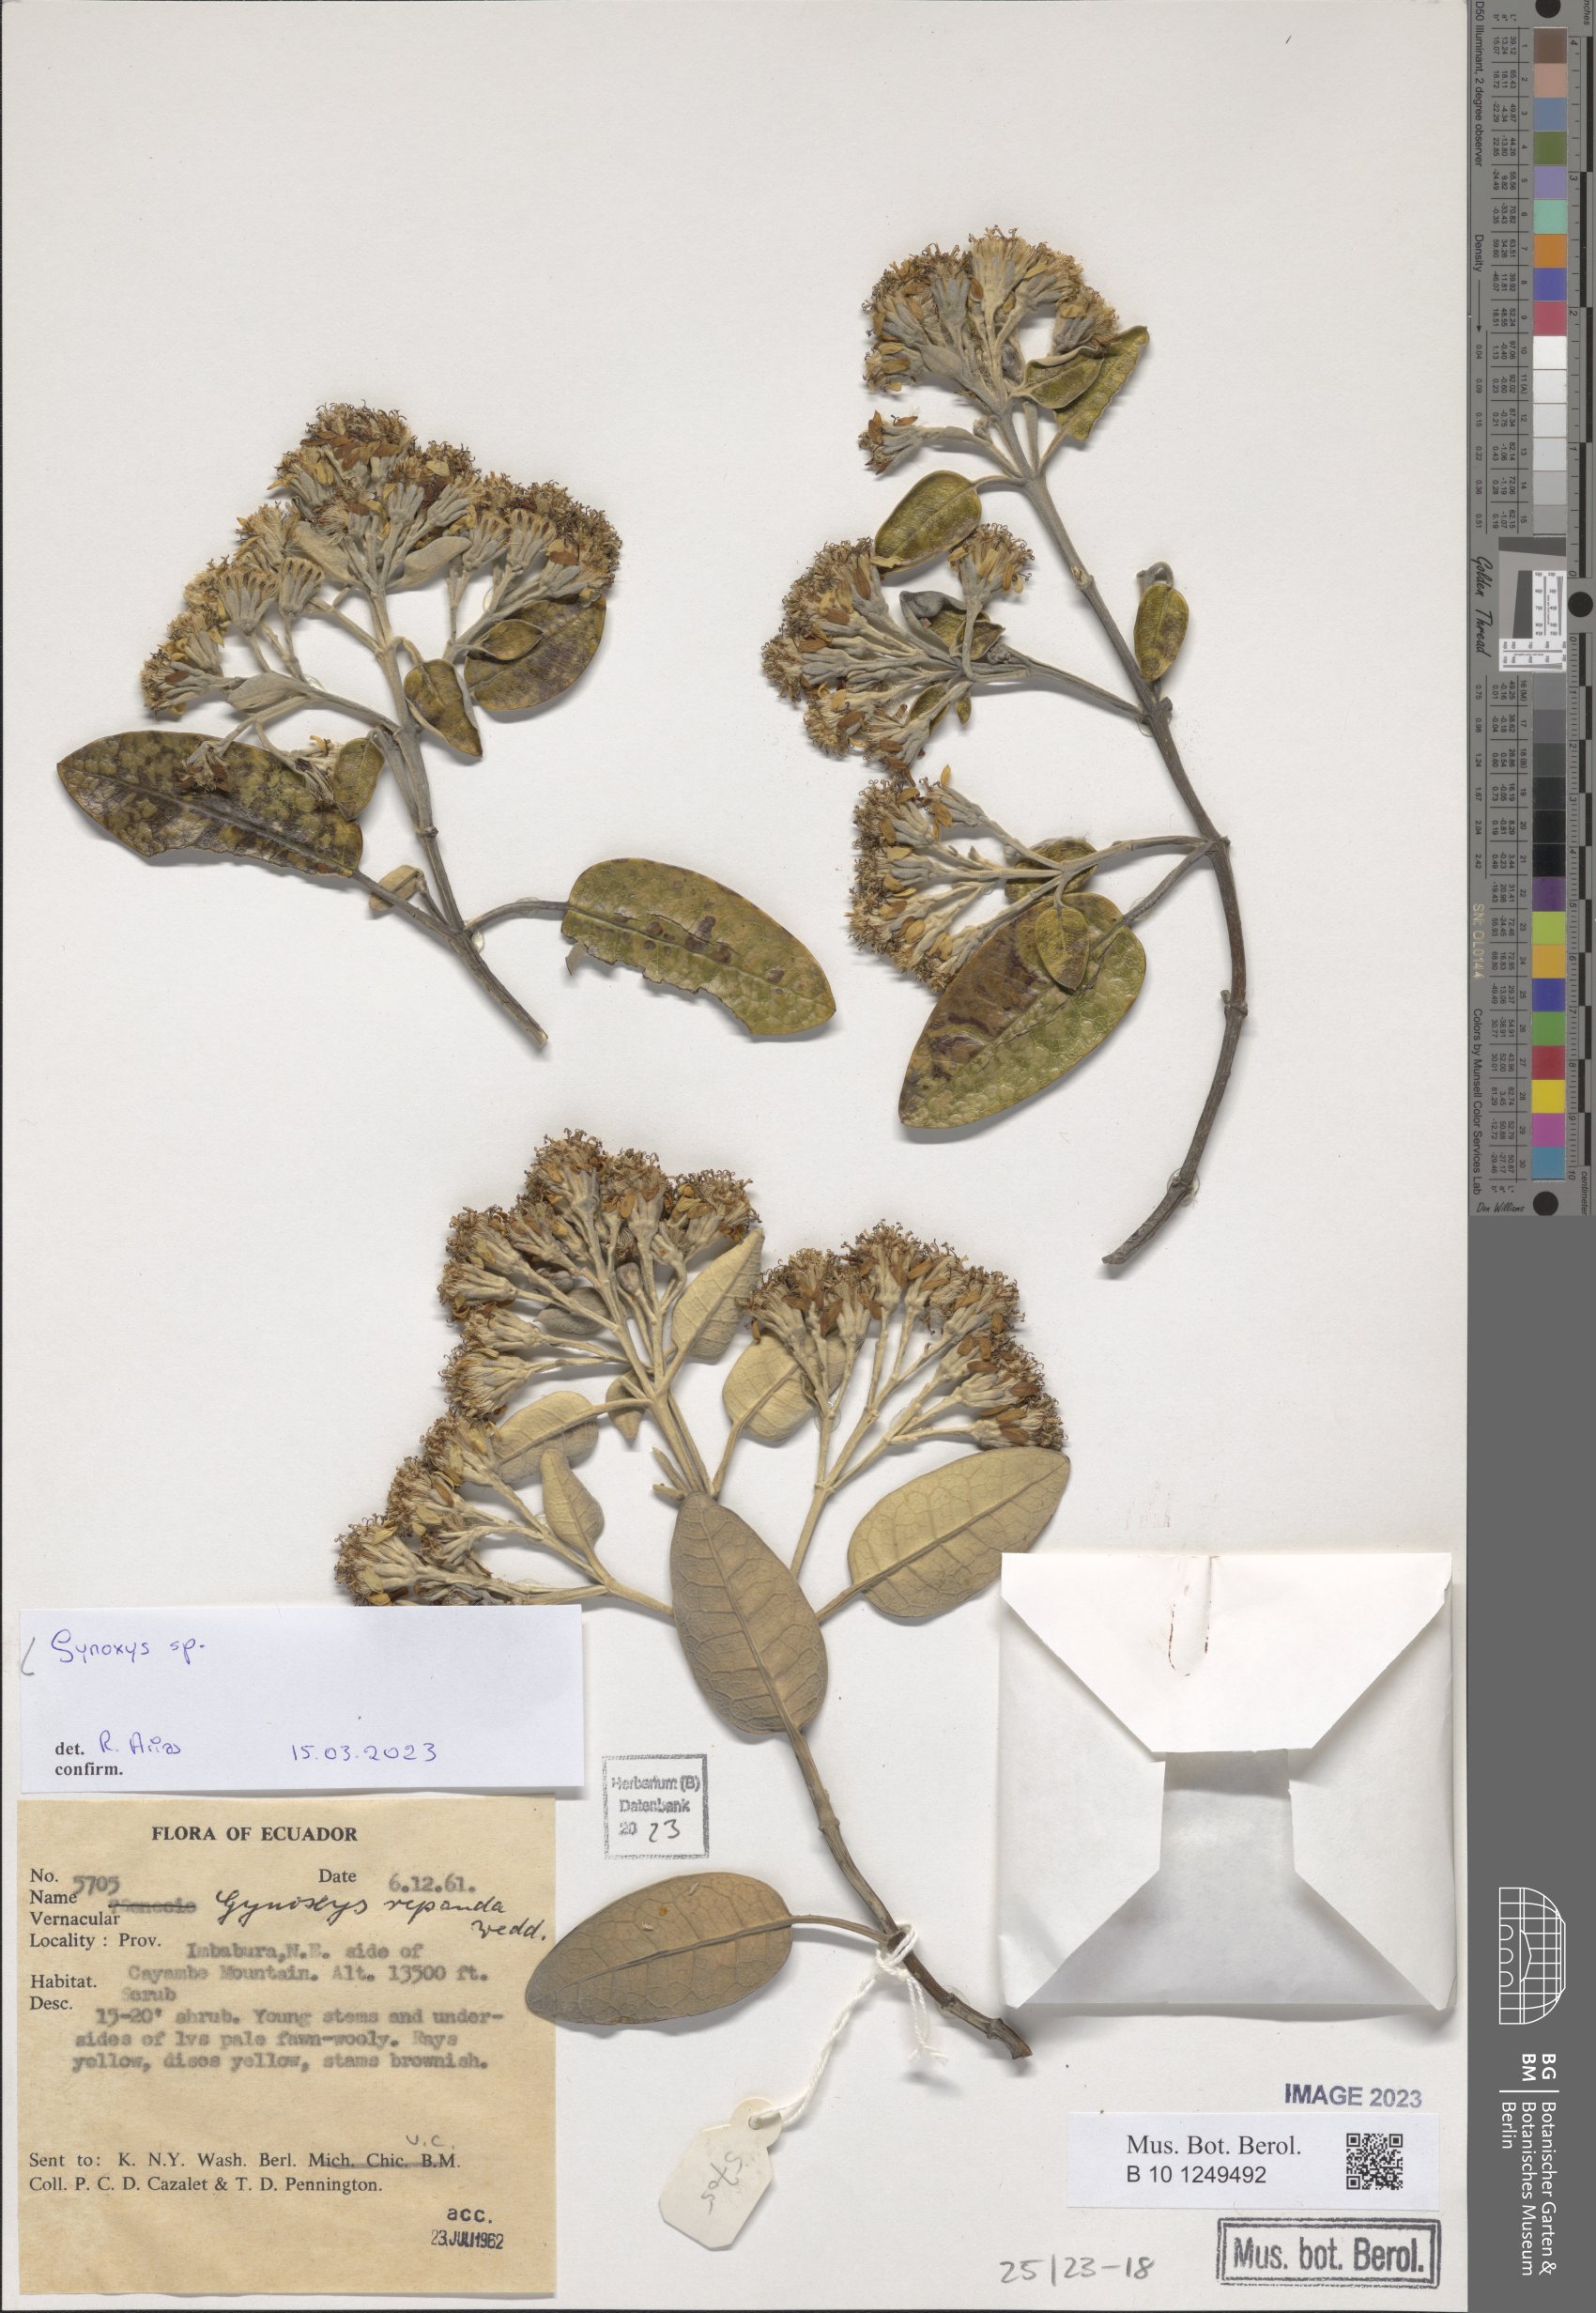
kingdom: Plantae
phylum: Tracheophyta
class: Magnoliopsida
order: Asterales
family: Asteraceae
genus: Gynoxys
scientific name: Gynoxys
